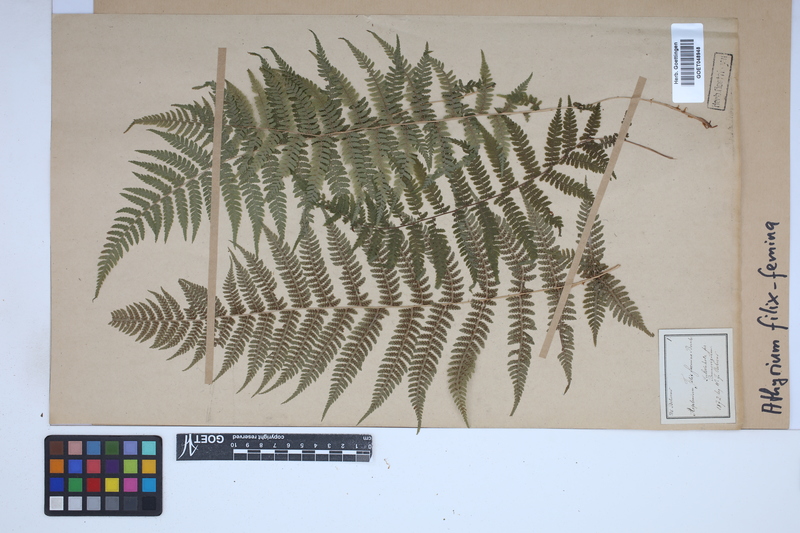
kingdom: Plantae
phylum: Tracheophyta
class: Polypodiopsida
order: Polypodiales
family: Athyriaceae
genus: Athyrium
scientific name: Athyrium filix-femina
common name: Lady fern
